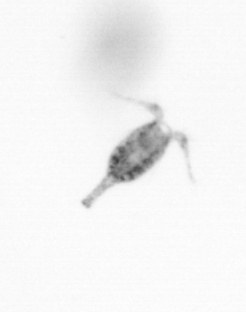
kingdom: Animalia
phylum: Arthropoda
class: Copepoda
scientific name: Copepoda
